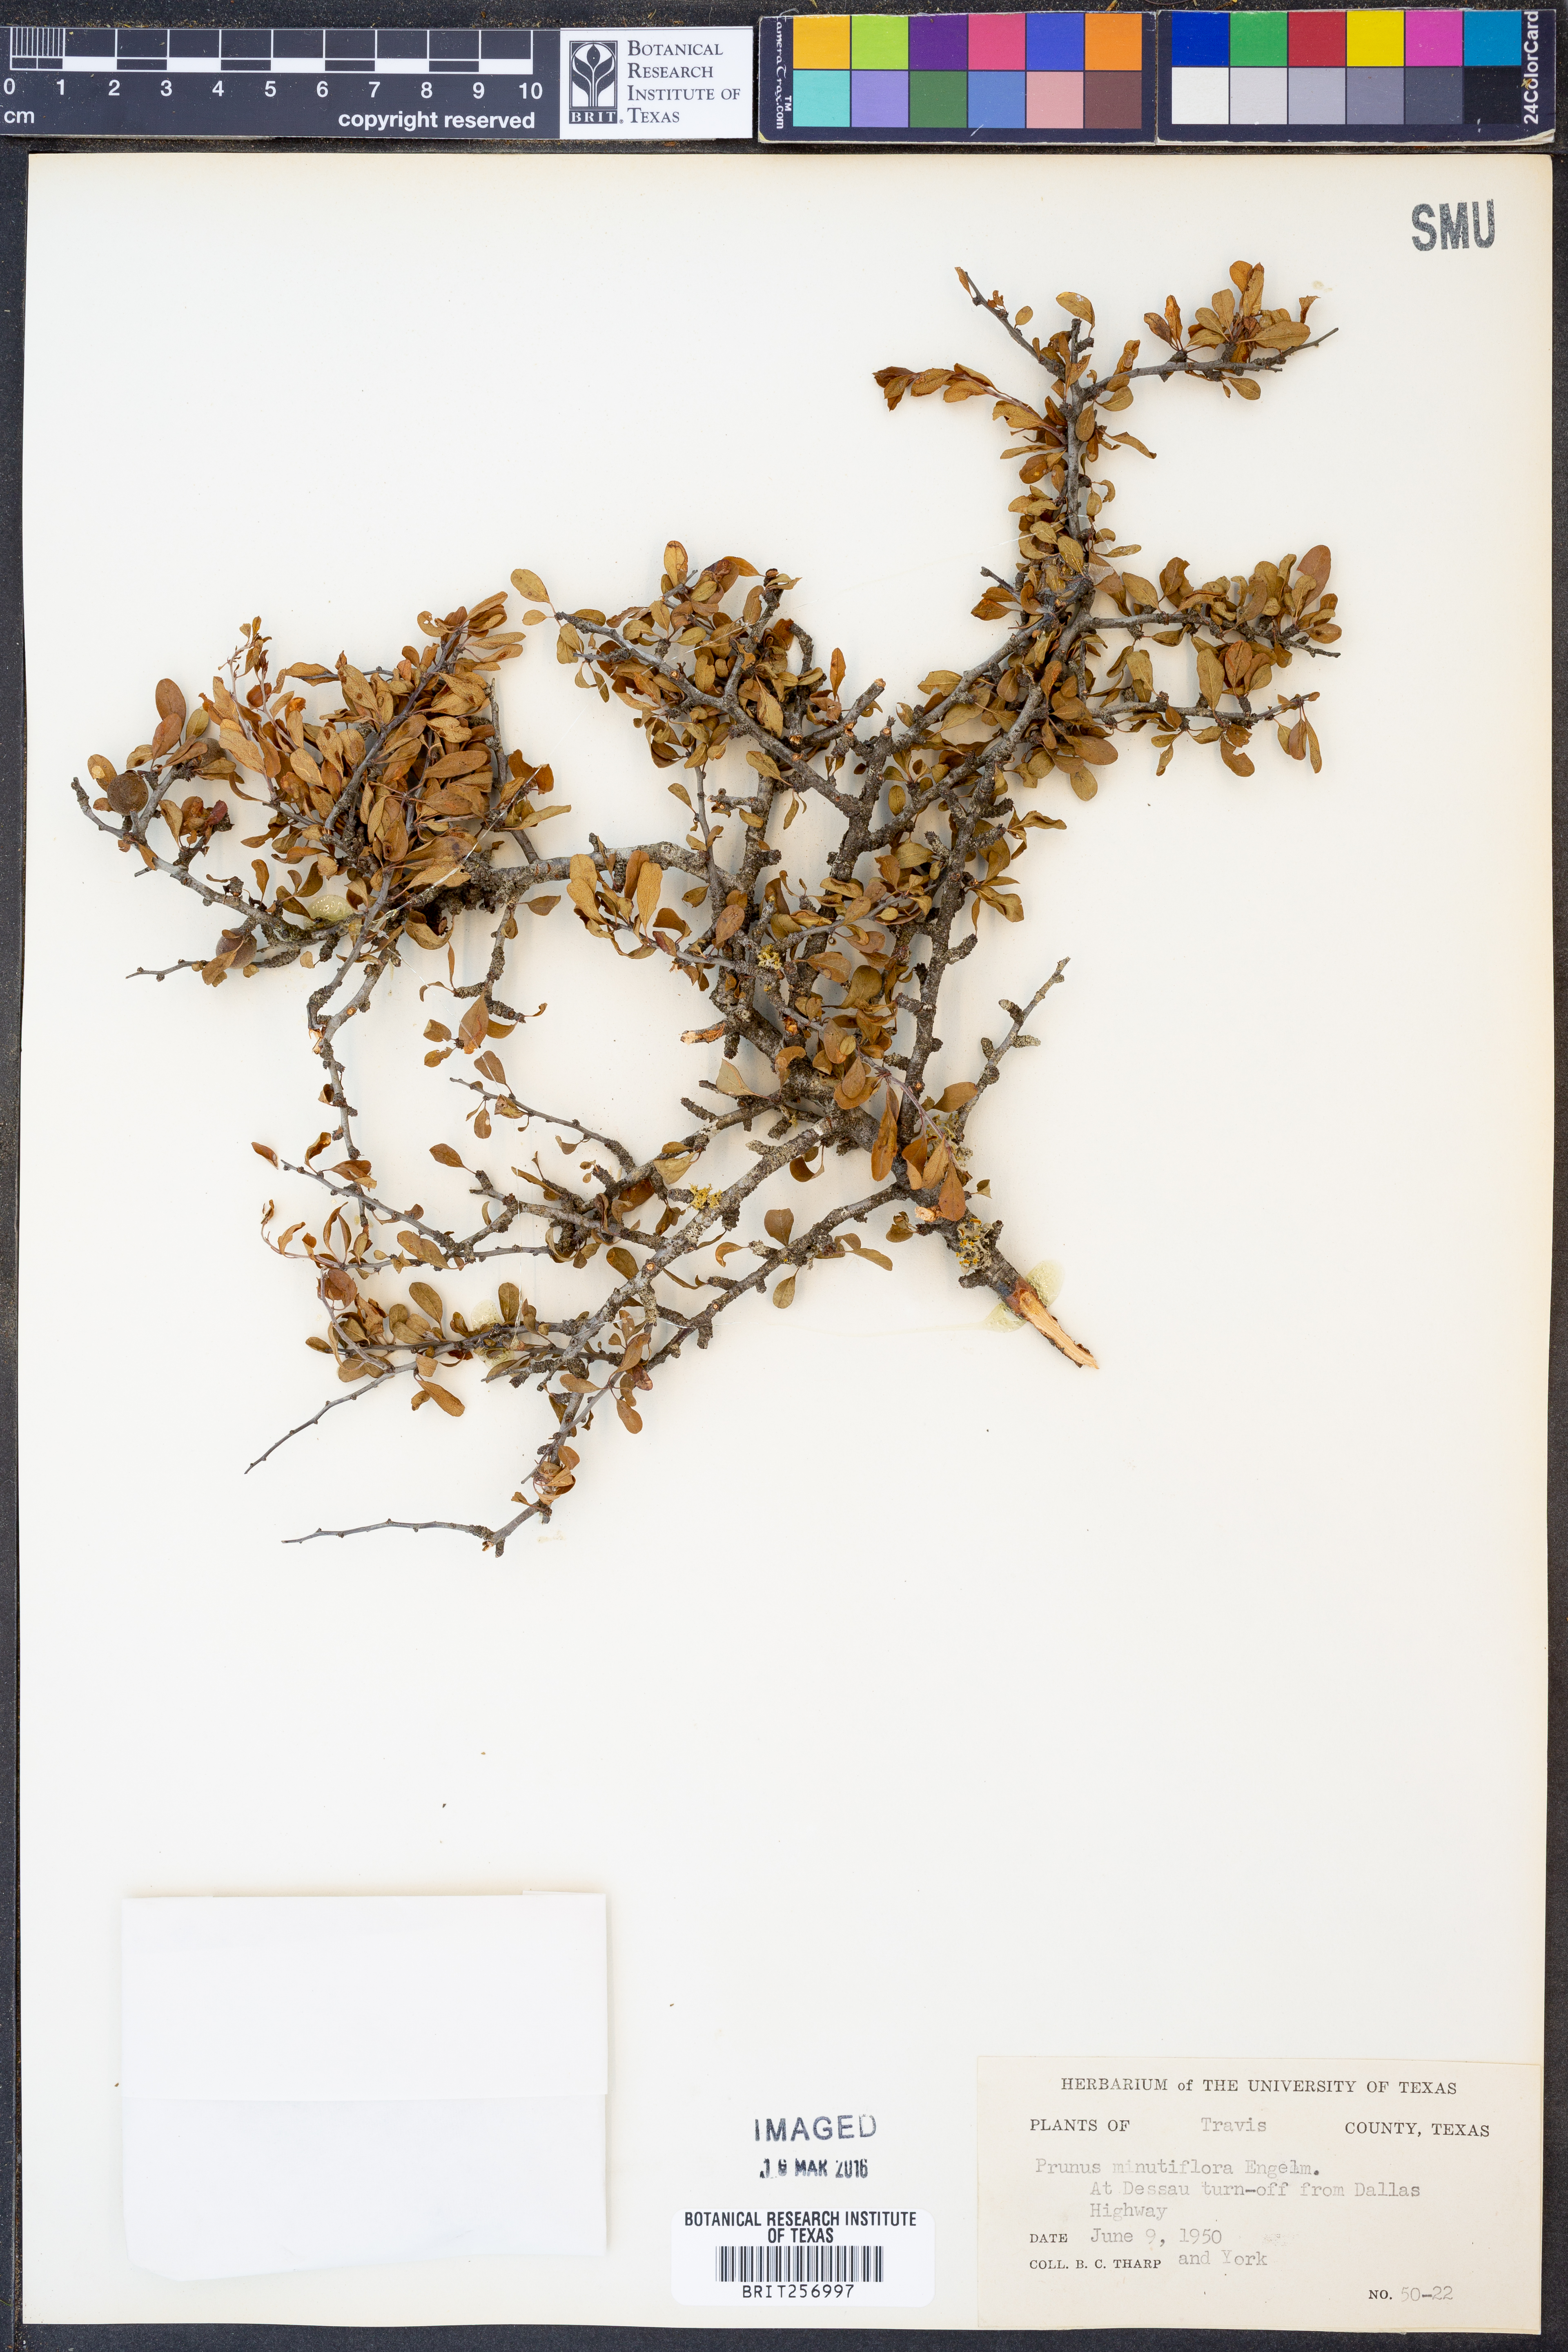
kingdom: Plantae
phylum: Tracheophyta
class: Magnoliopsida
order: Rosales
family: Rosaceae
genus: Prunus
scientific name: Prunus minutiflora
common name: Texas almond
